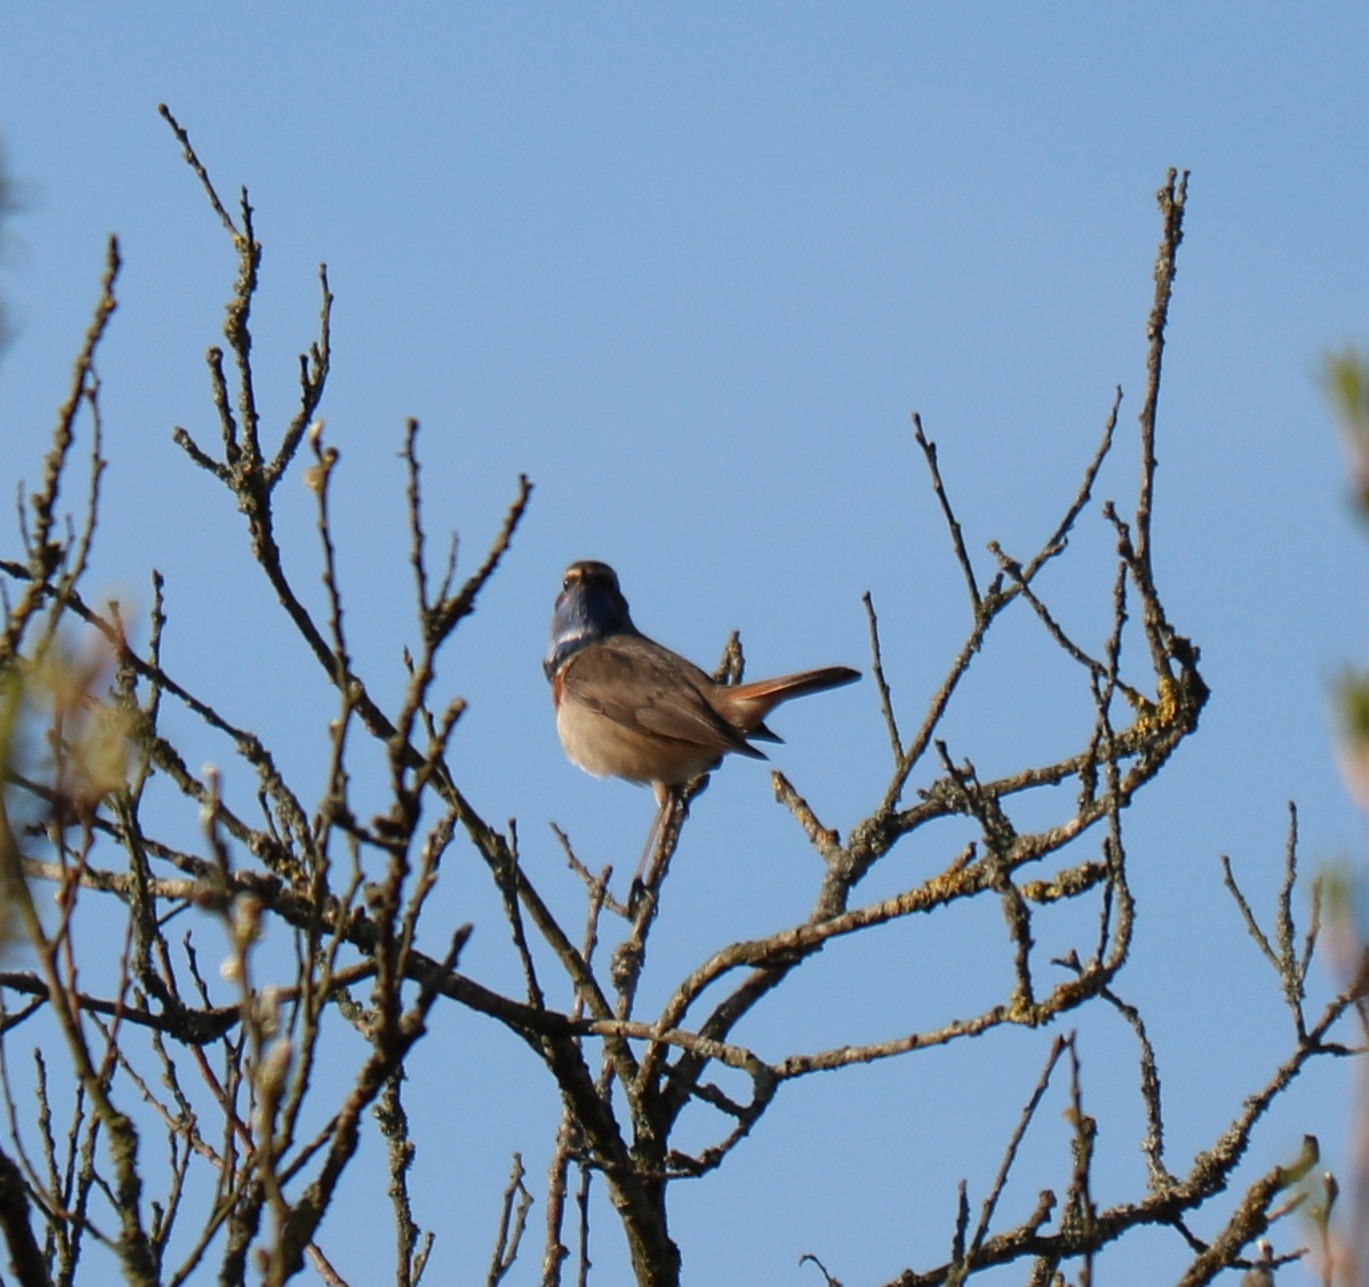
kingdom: Animalia
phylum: Chordata
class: Aves
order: Passeriformes
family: Muscicapidae
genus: Luscinia
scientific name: Luscinia svecica
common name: Blåhals
